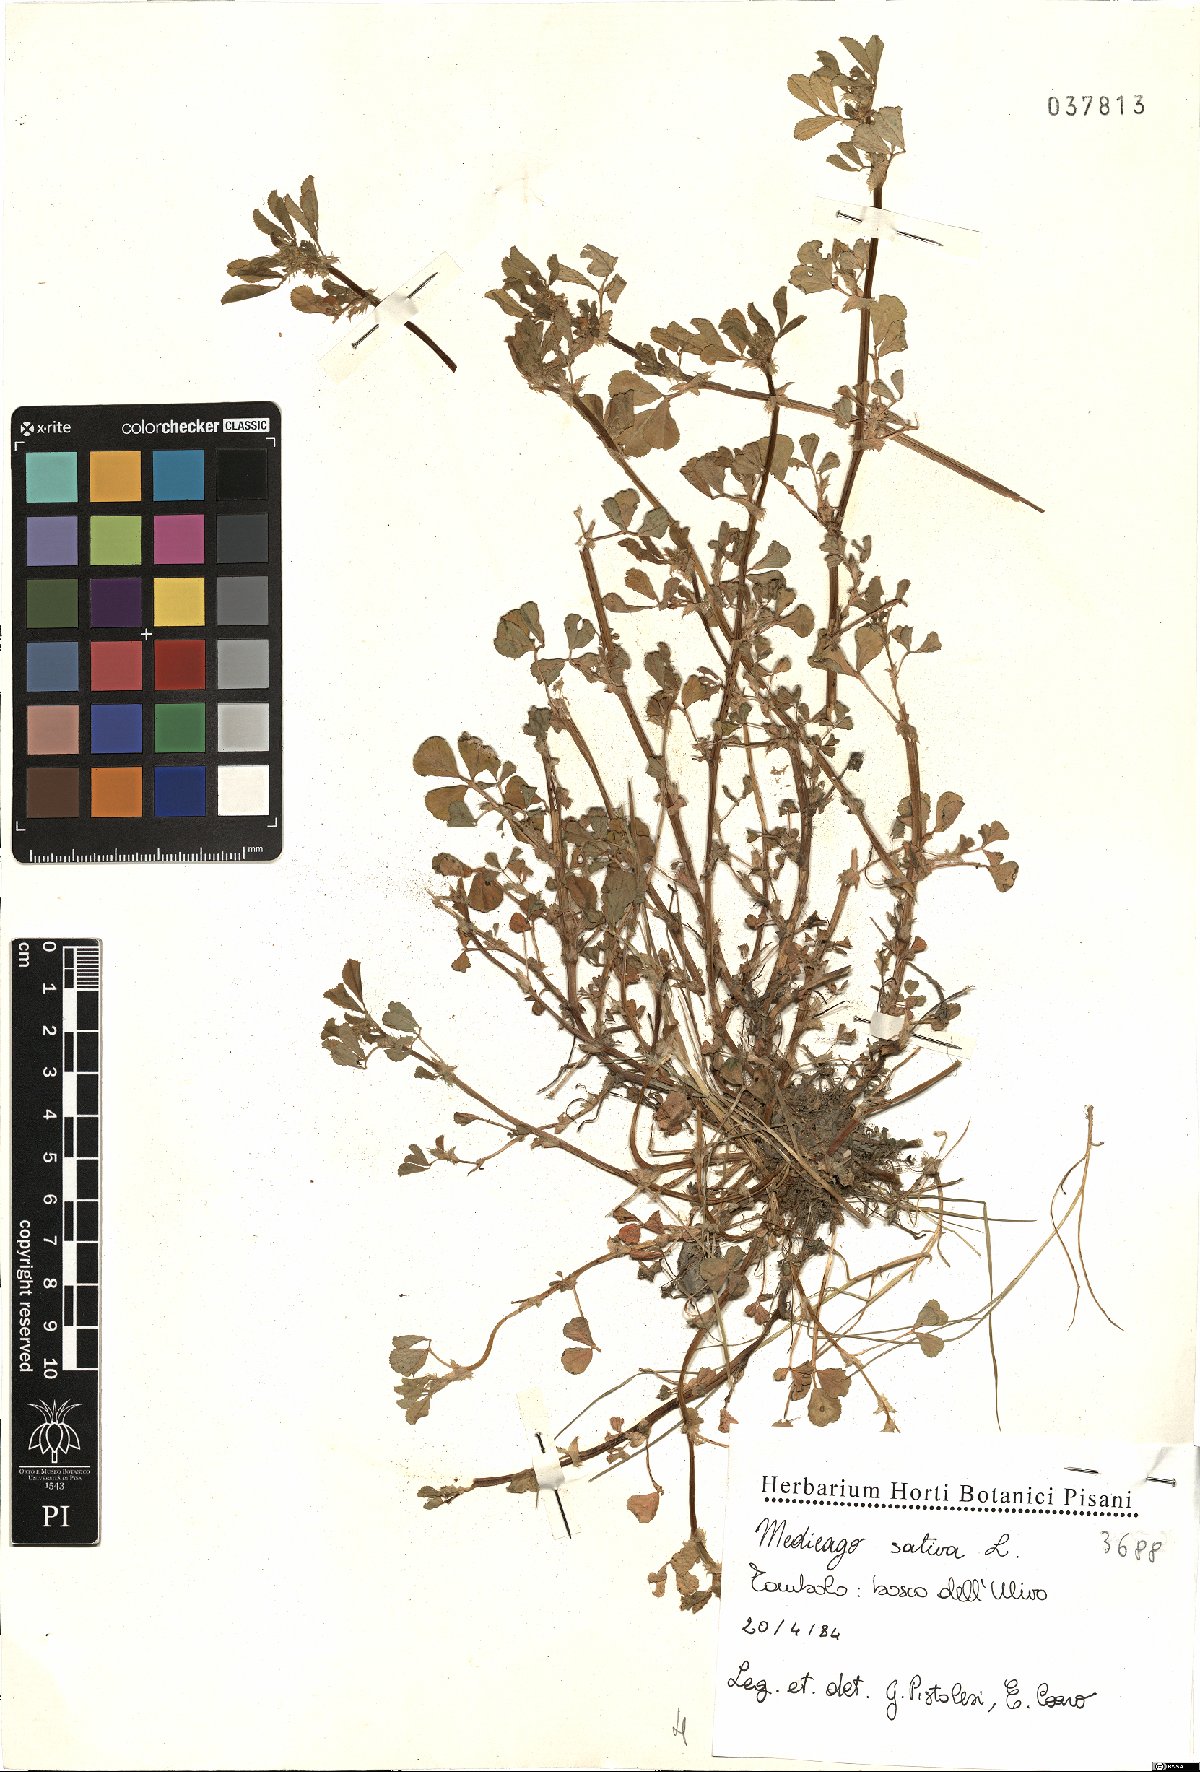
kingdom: Plantae
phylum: Tracheophyta
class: Magnoliopsida
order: Fabales
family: Fabaceae
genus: Medicago
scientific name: Medicago sativa
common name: Alfalfa
